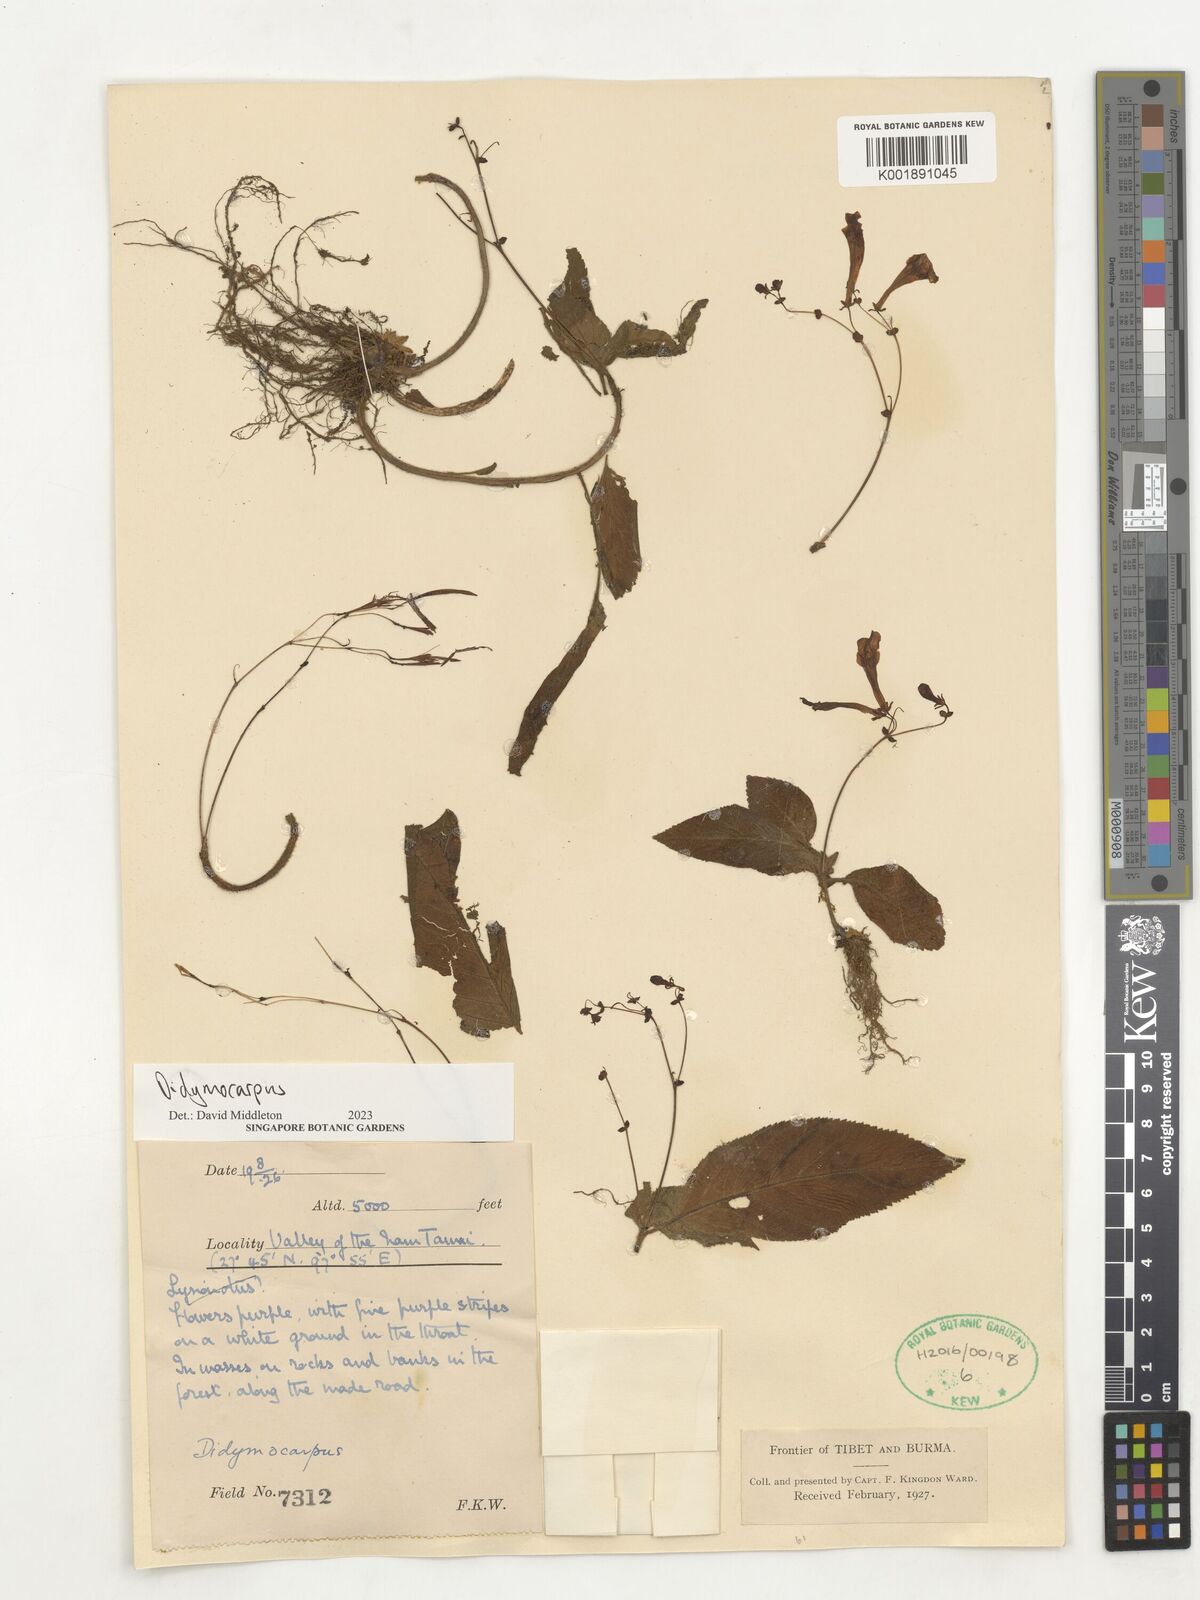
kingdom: Plantae
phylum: Tracheophyta
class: Magnoliopsida
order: Lamiales
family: Gesneriaceae
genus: Didymocarpus
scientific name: Didymocarpus
